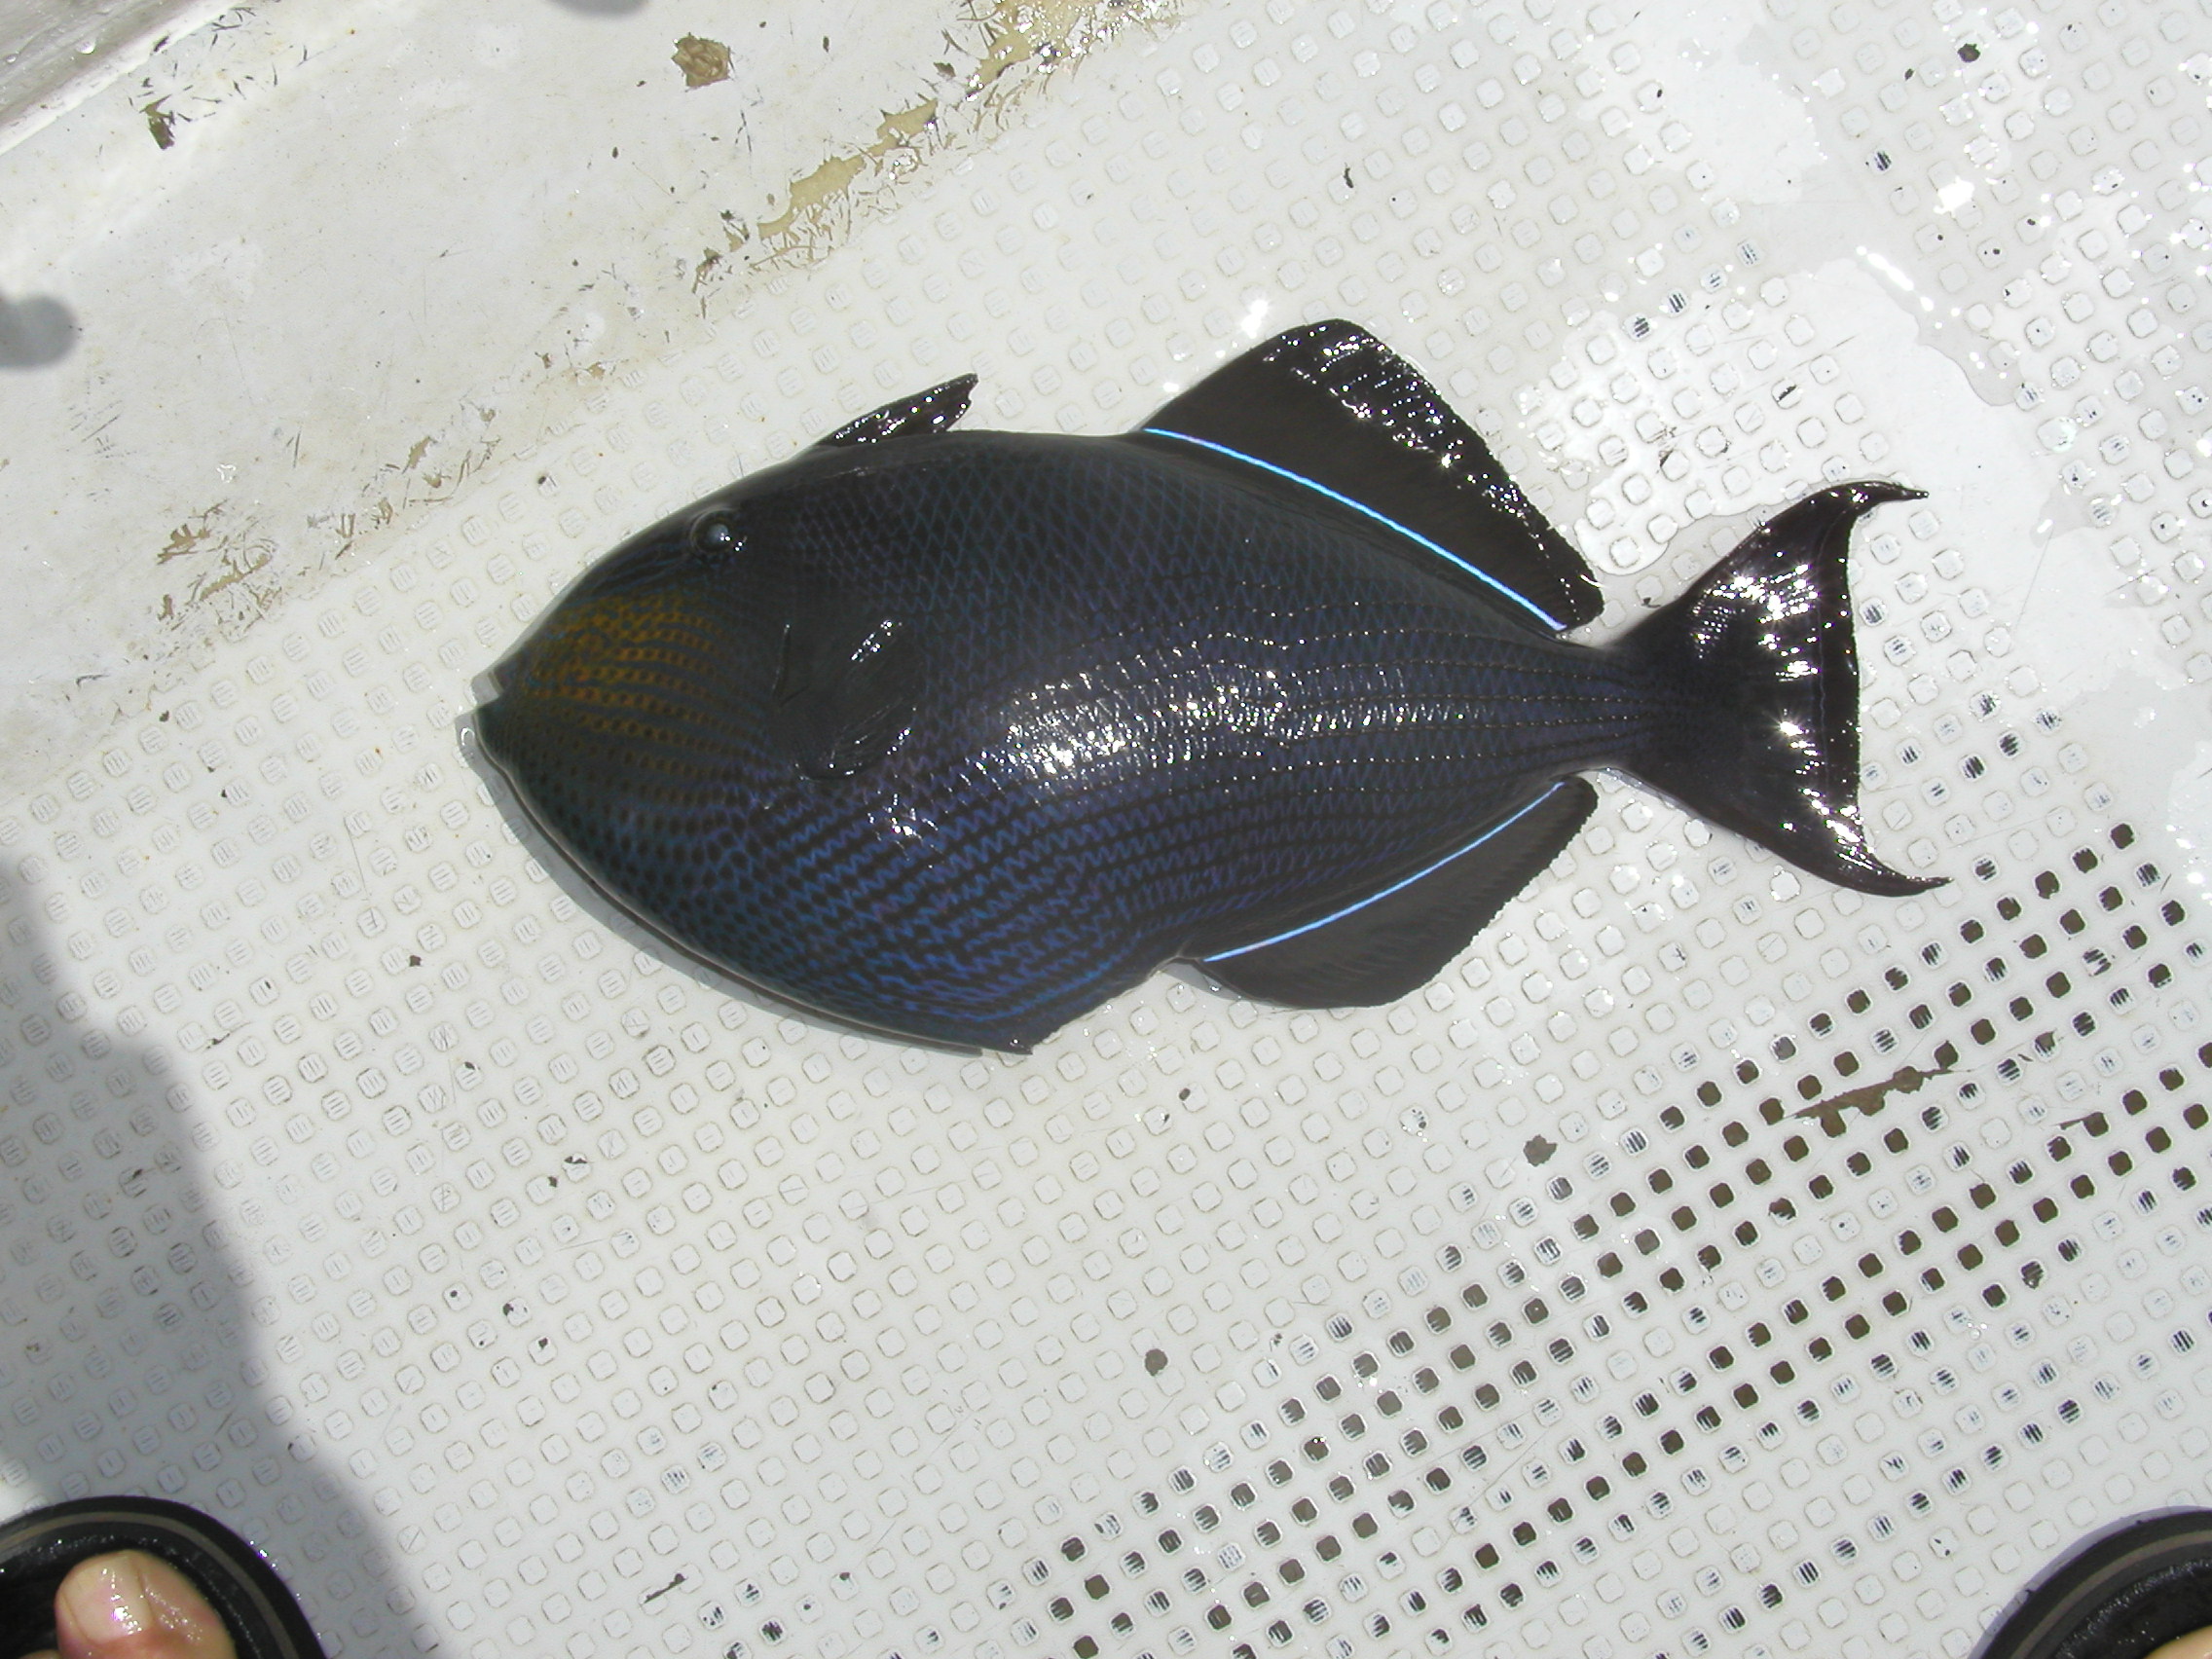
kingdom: Animalia
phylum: Chordata
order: Tetraodontiformes
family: Balistidae
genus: Melichthys
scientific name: Melichthys niger
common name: Black durgon
